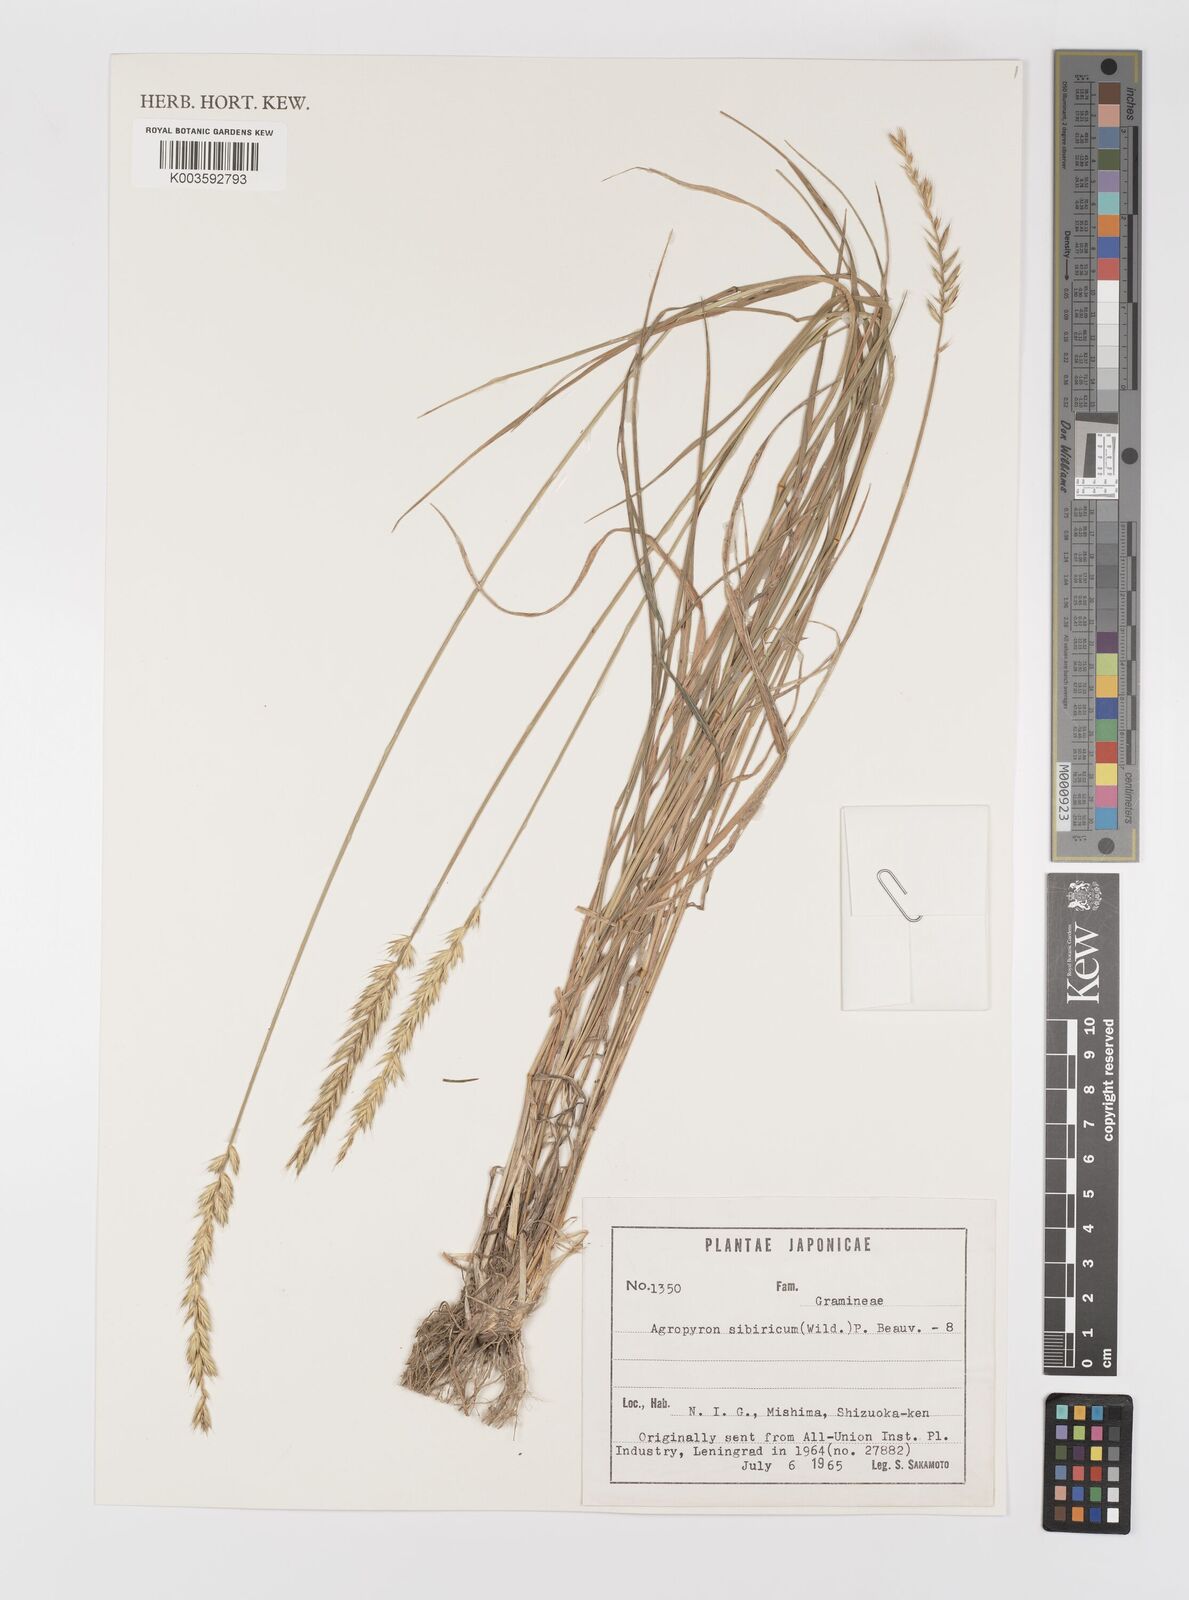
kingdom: Plantae
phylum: Tracheophyta
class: Liliopsida
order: Poales
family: Poaceae
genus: Agropyron
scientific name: Agropyron fragile
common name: Siberian wheatgrass
